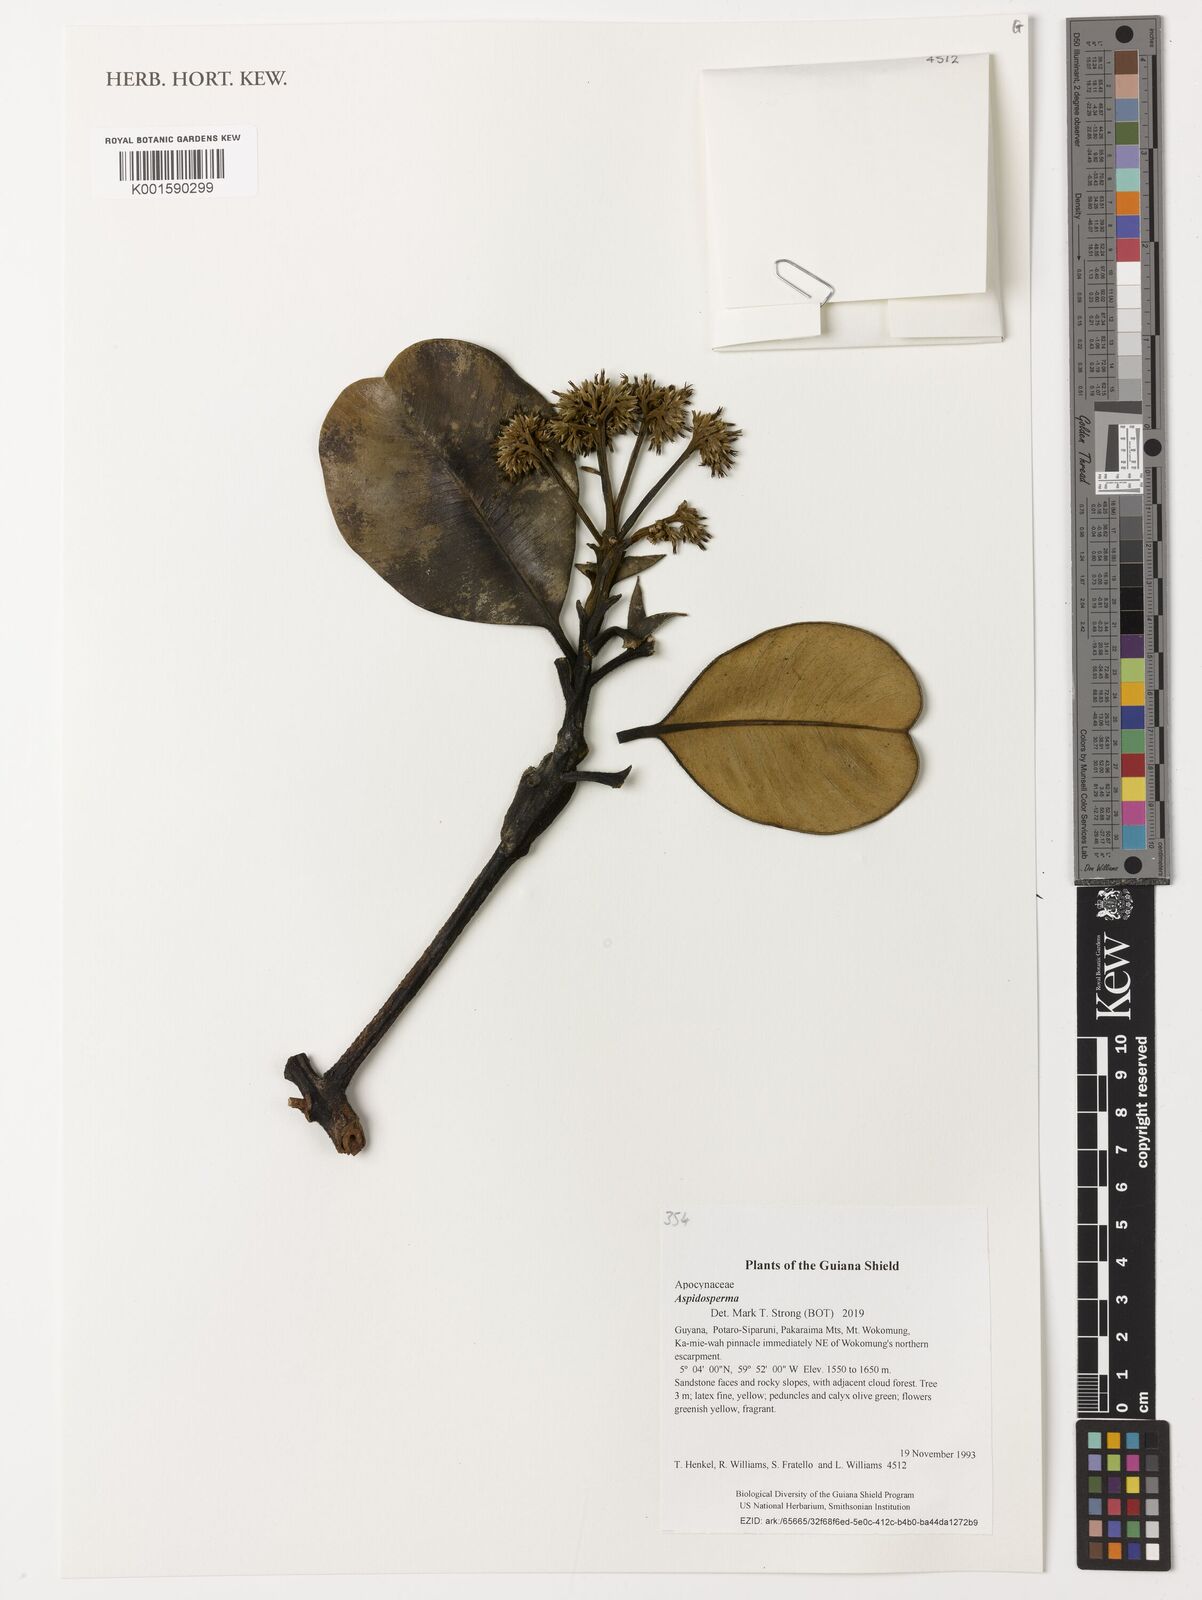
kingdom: Plantae
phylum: Tracheophyta
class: Magnoliopsida
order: Gentianales
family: Apocynaceae
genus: Aspidosperma
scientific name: Aspidosperma
